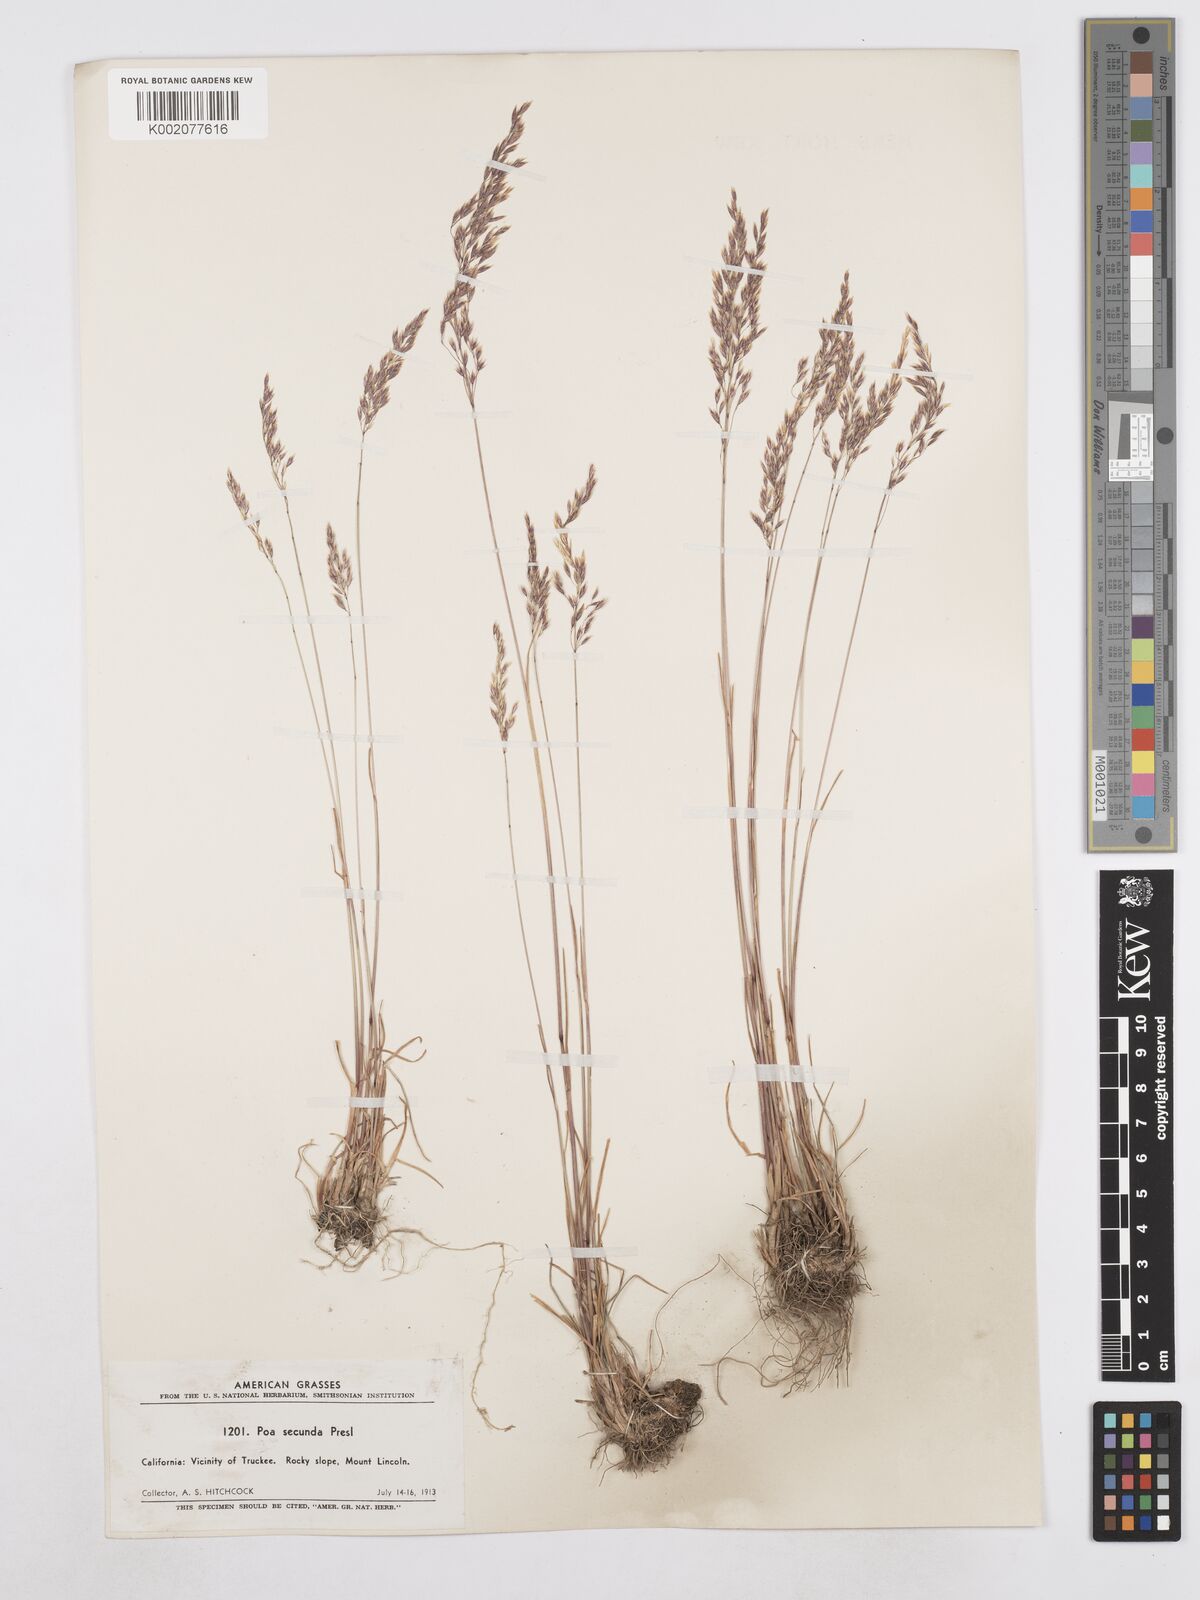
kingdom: Plantae
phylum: Tracheophyta
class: Liliopsida
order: Poales
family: Poaceae
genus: Poa
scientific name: Poa secunda
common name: Sandberg bluegrass
